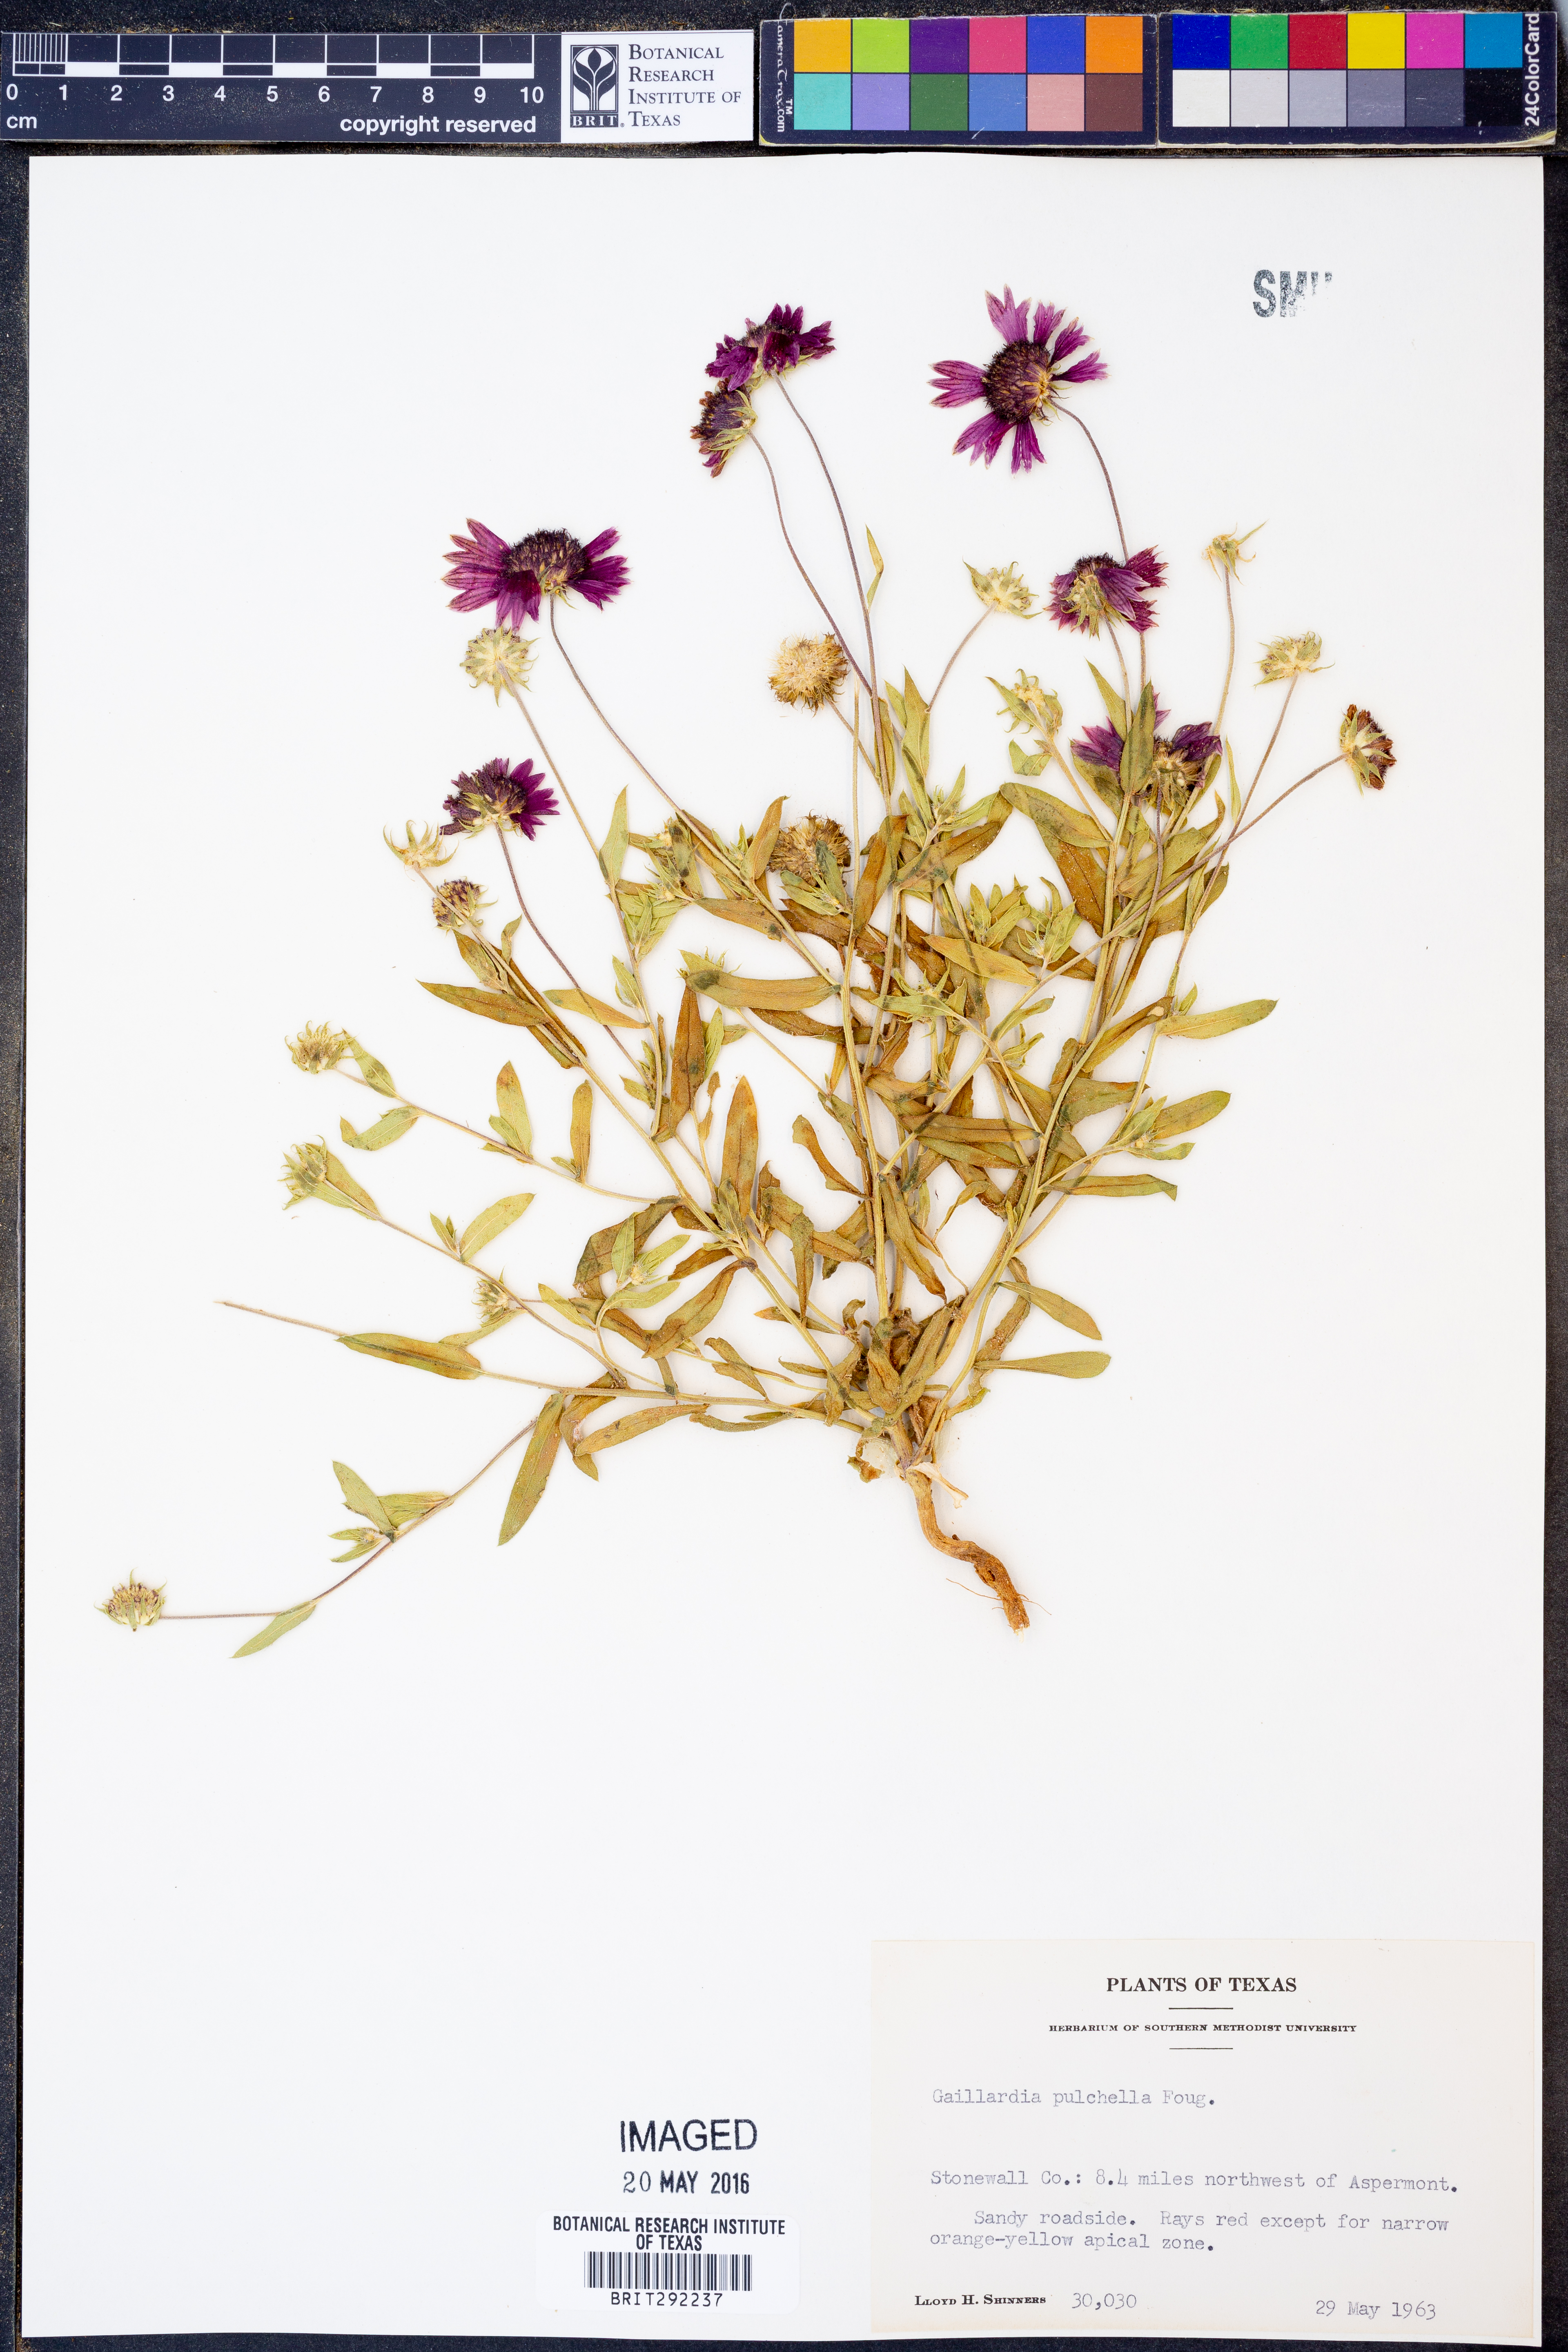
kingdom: Plantae
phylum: Tracheophyta
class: Magnoliopsida
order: Asterales
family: Asteraceae
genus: Gaillardia
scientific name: Gaillardia pulchella
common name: Firewheel
